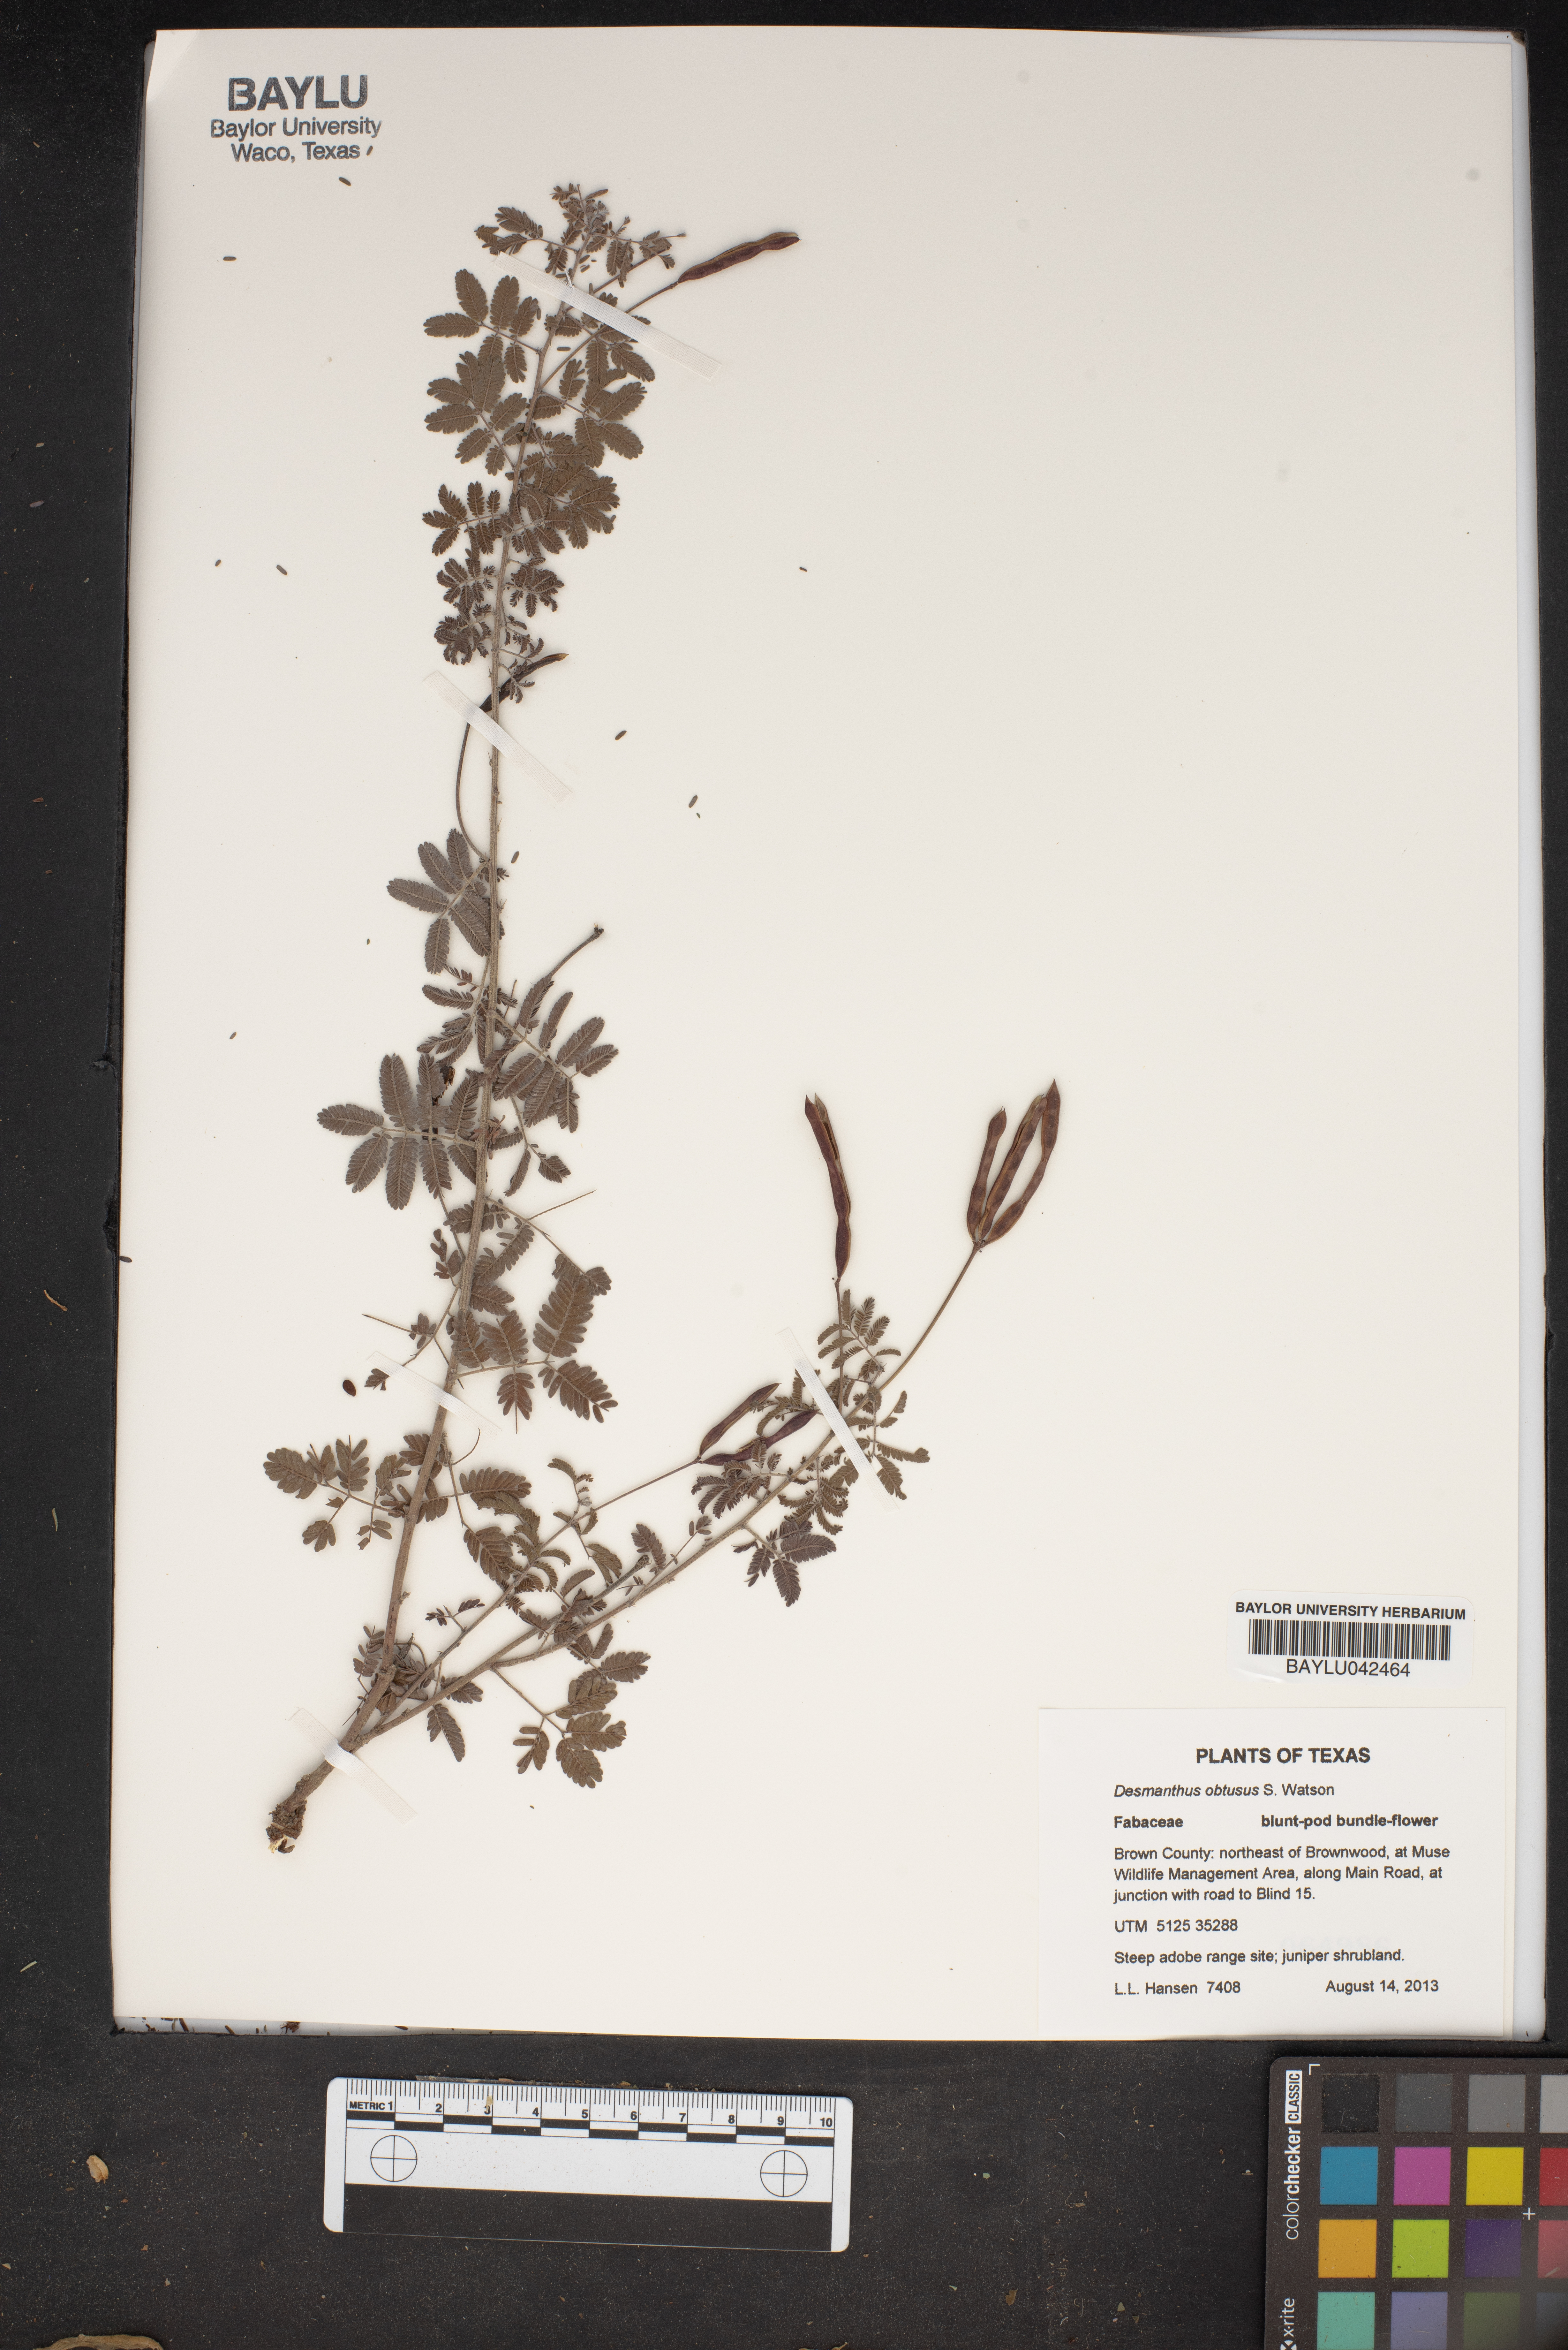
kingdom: Plantae
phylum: Tracheophyta
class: Magnoliopsida
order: Fabales
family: Fabaceae
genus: Desmanthus
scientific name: Desmanthus obtusus
